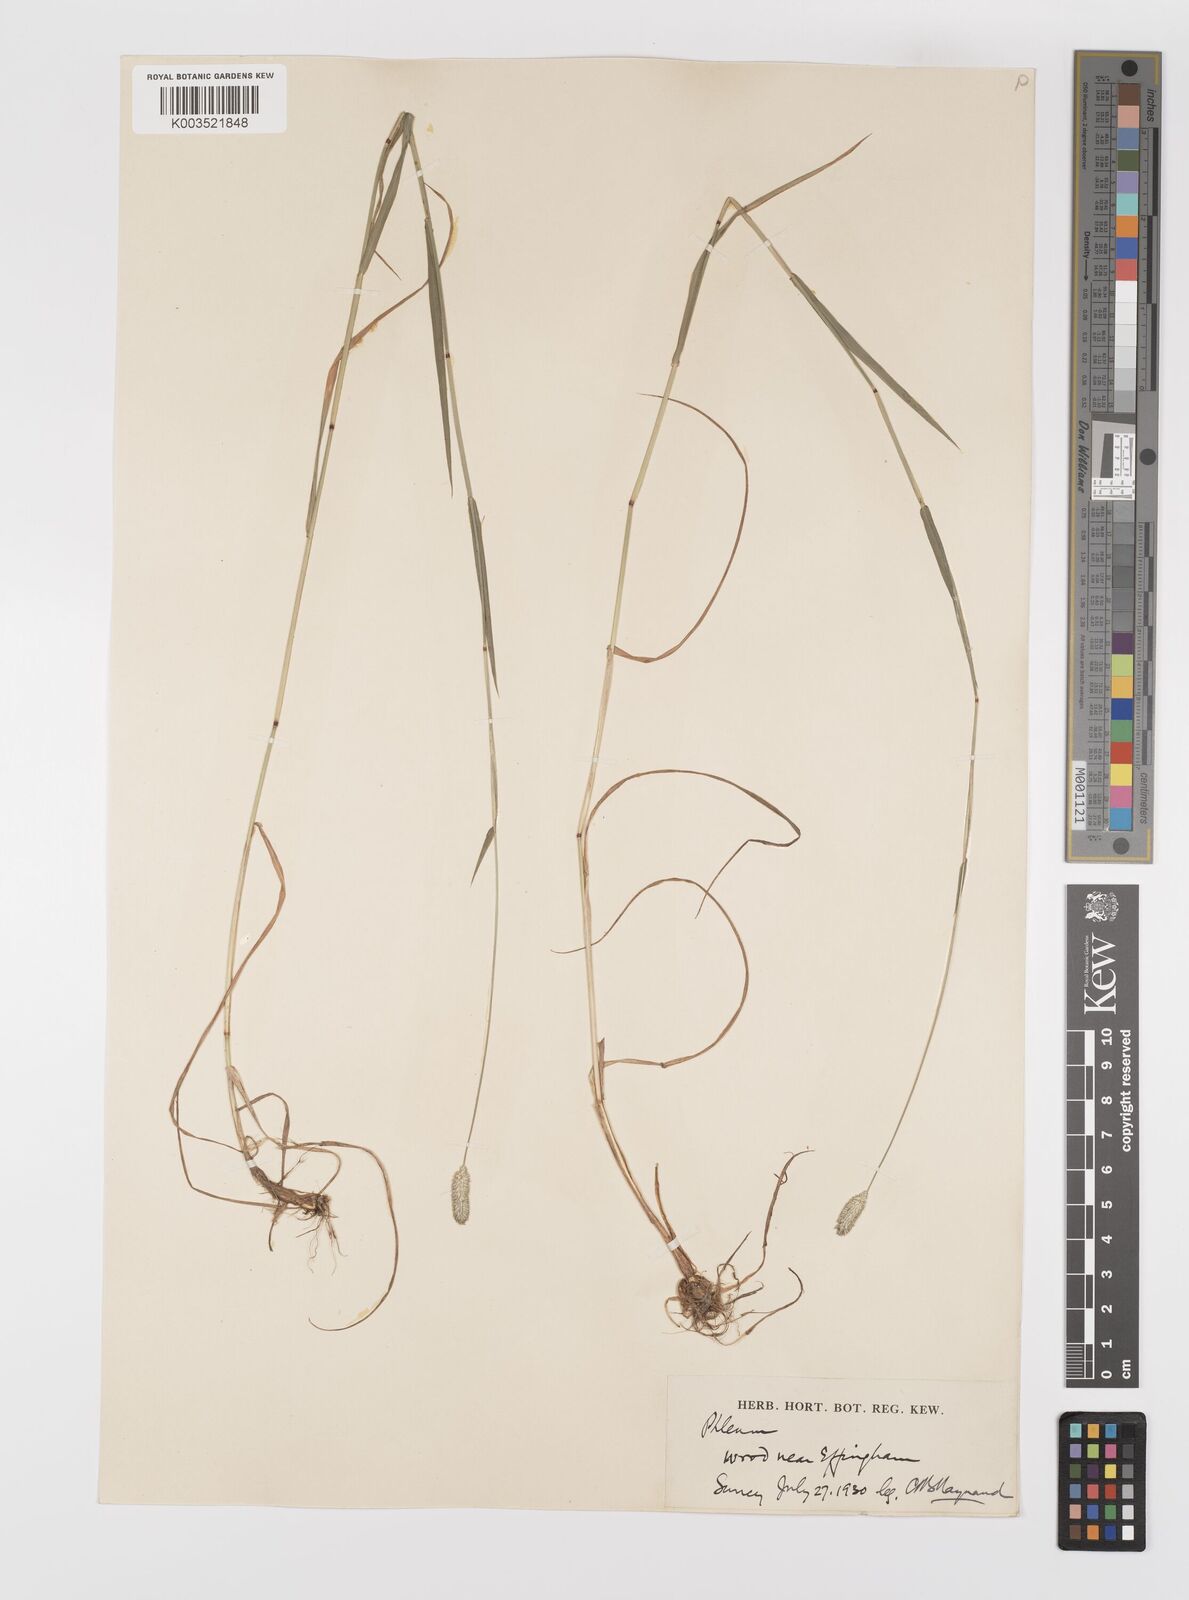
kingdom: Plantae
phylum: Tracheophyta
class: Liliopsida
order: Poales
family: Poaceae
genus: Phleum
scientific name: Phleum bertolonii
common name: Smaller cat's-tail
